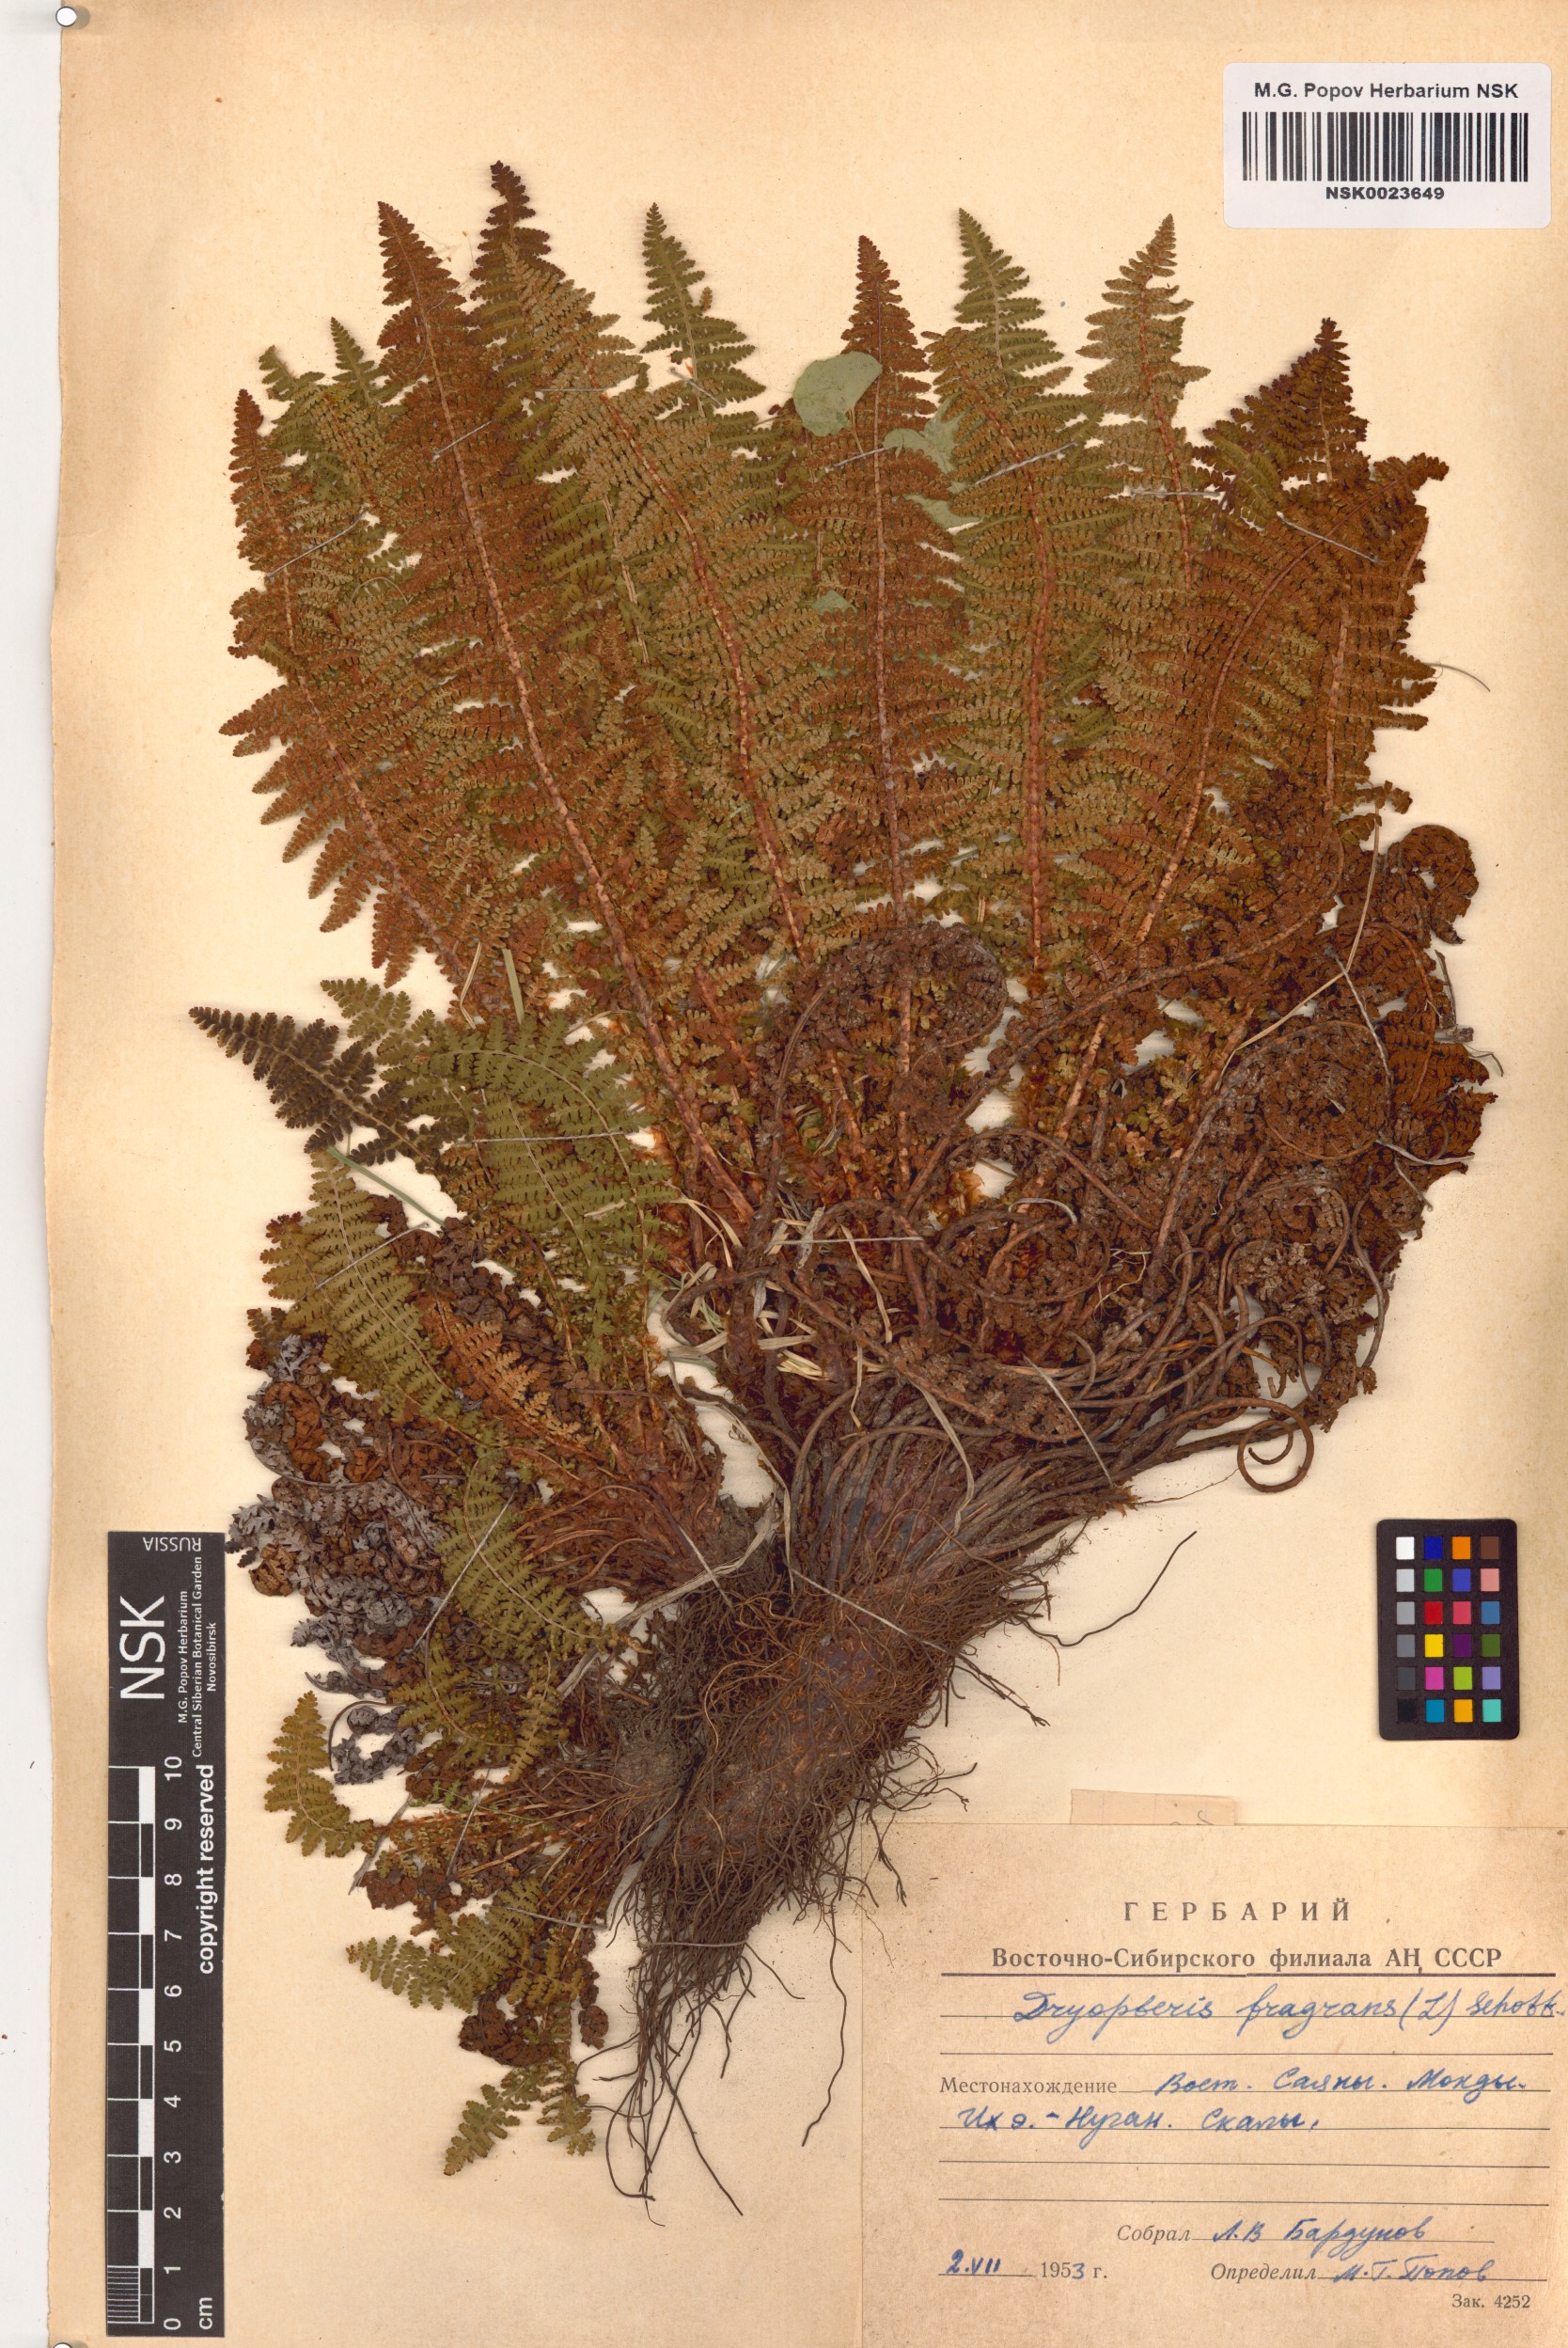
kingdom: Plantae
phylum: Tracheophyta
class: Polypodiopsida
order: Polypodiales
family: Dryopteridaceae
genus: Dryopteris
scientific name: Dryopteris fragrans
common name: Fragrant wood fern
